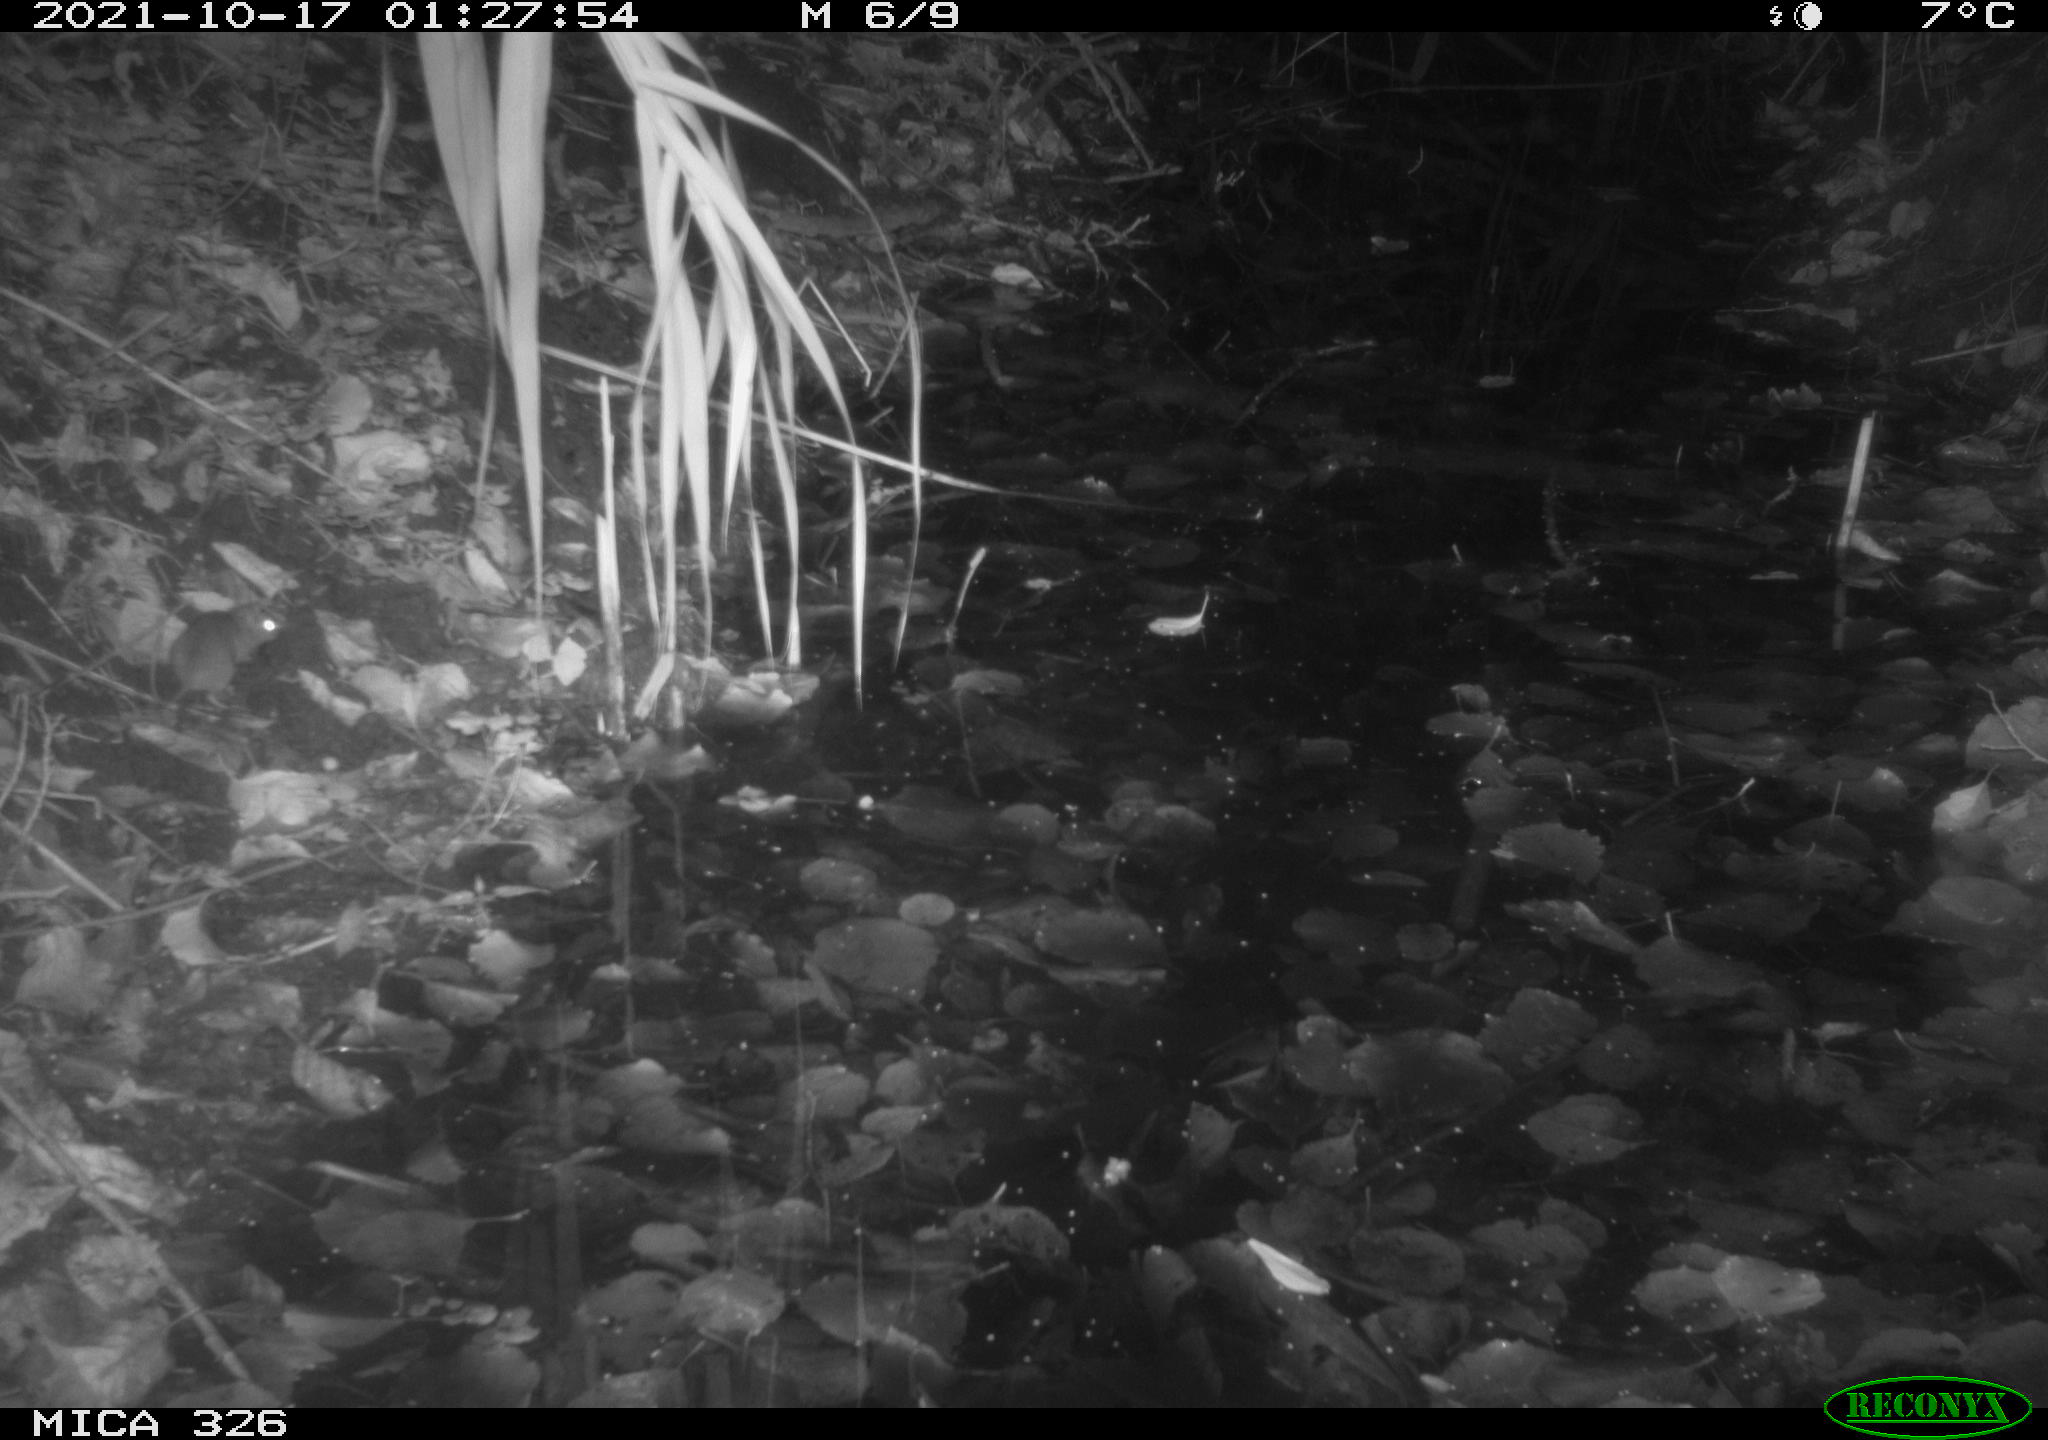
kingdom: Animalia
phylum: Chordata
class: Mammalia
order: Rodentia
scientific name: Rodentia
